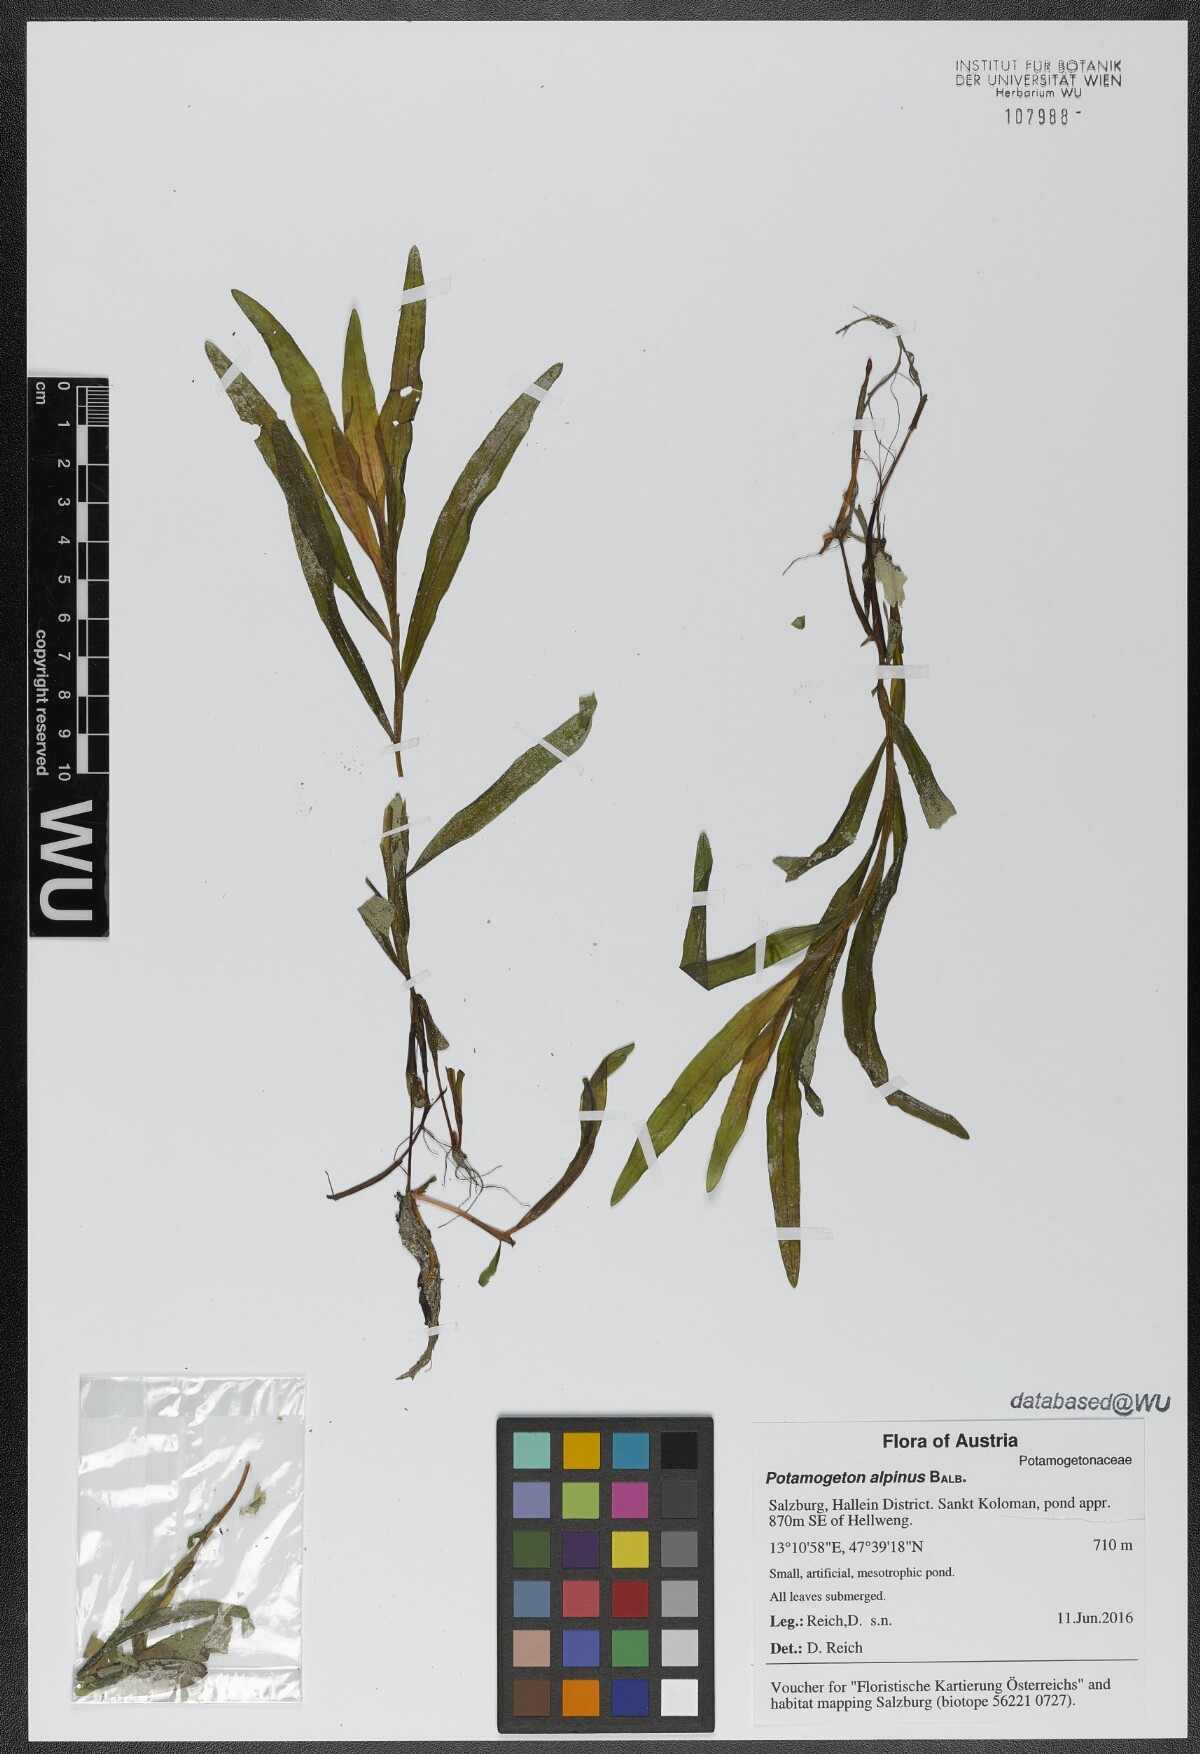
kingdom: Plantae
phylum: Tracheophyta
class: Liliopsida
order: Alismatales
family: Potamogetonaceae
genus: Potamogeton
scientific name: Potamogeton alpinus
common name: Red pondweed
